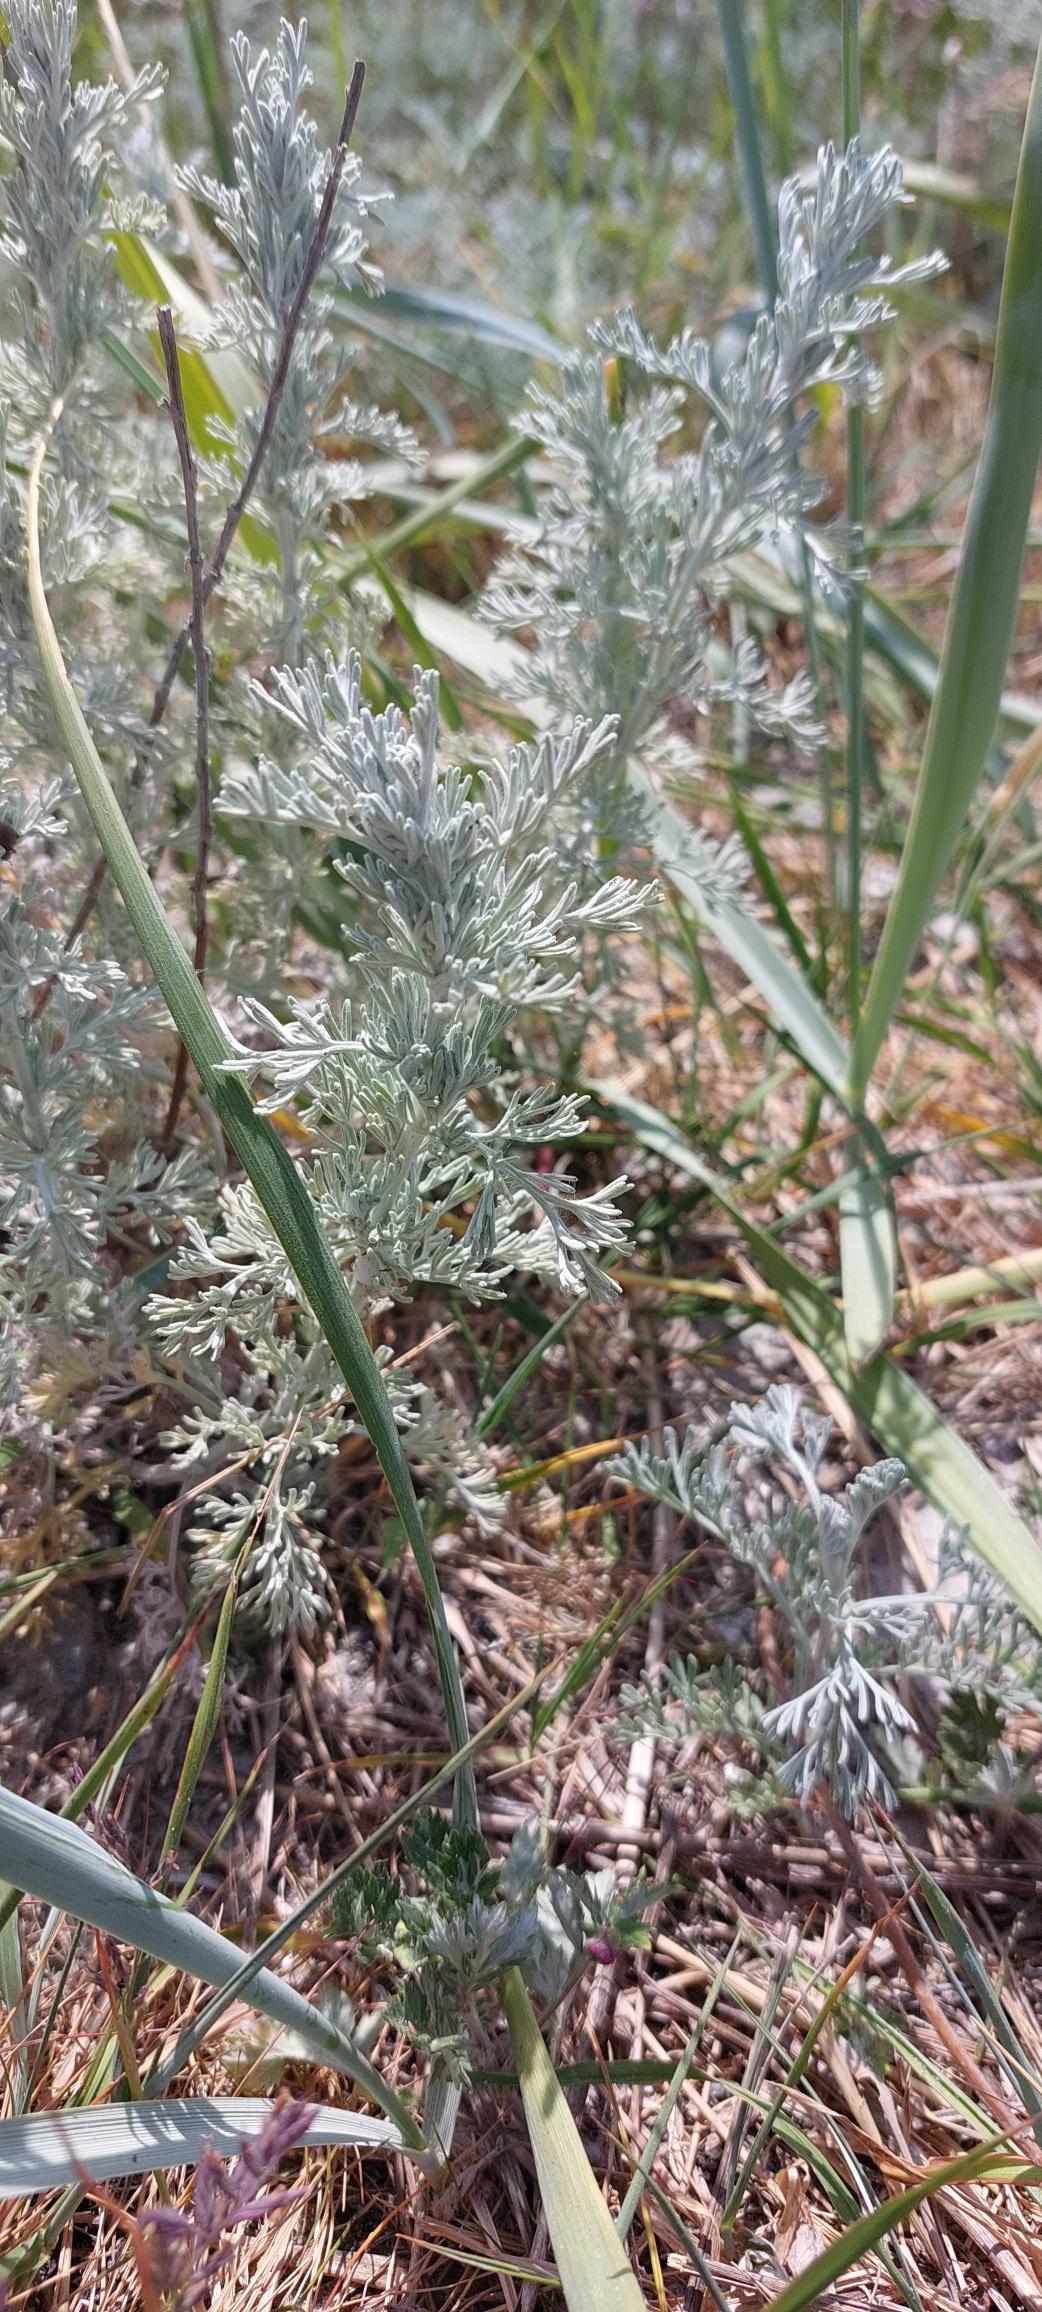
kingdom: Plantae
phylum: Tracheophyta
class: Magnoliopsida
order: Asterales
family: Asteraceae
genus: Artemisia
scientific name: Artemisia maritima
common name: Strandmalurt
